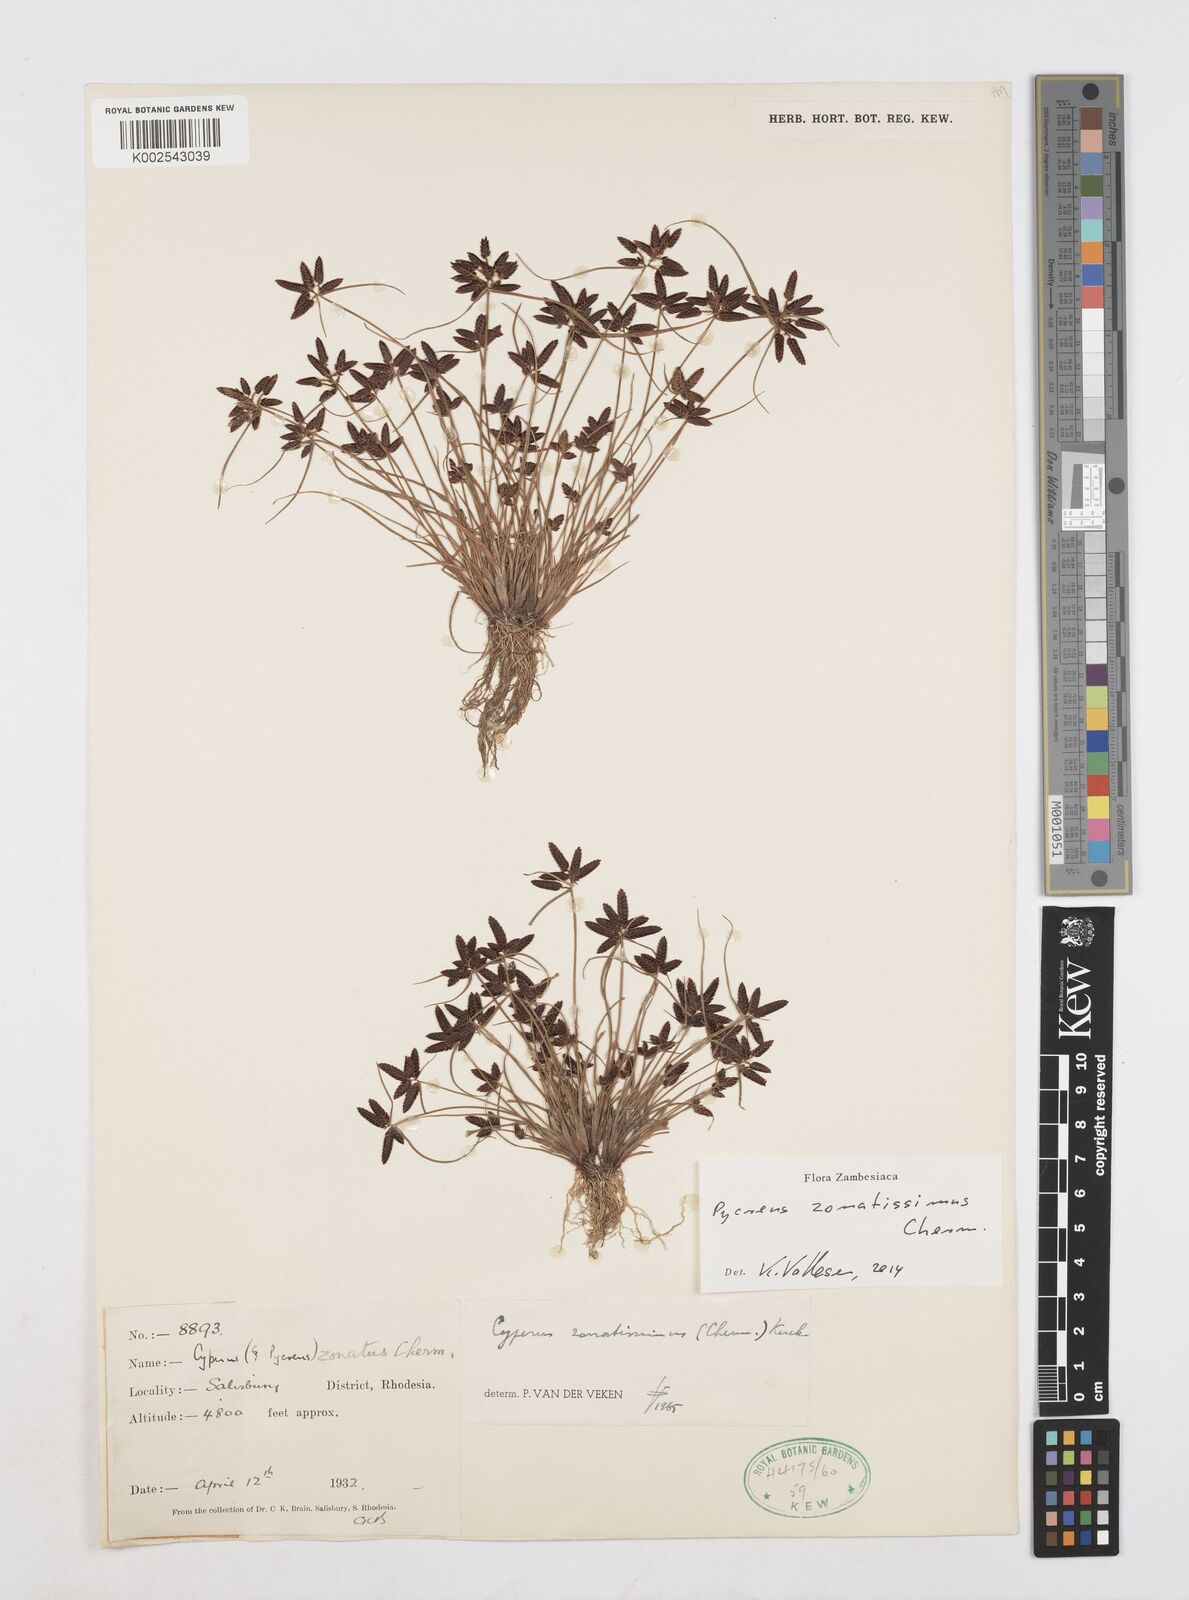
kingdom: Plantae
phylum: Tracheophyta
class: Liliopsida
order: Poales
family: Cyperaceae
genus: Cyperus
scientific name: Cyperus zonatissimus
